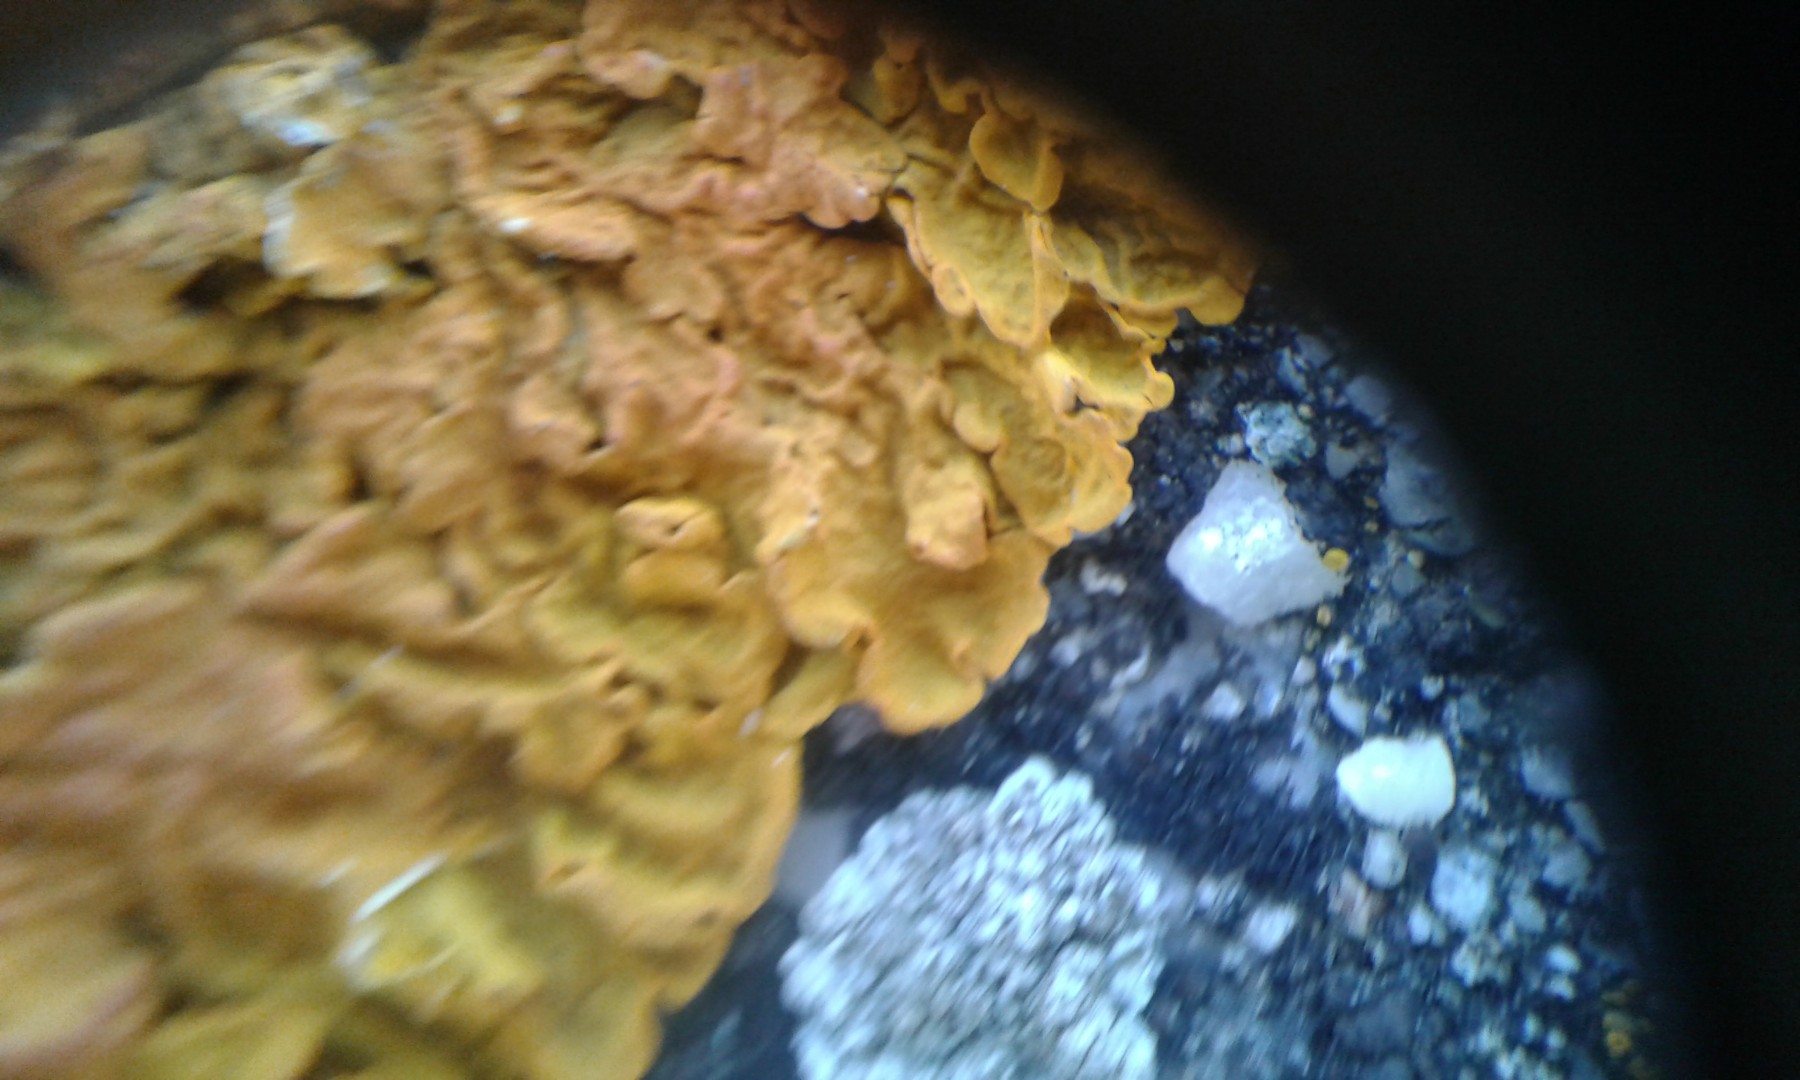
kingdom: Fungi
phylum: Ascomycota
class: Lecanoromycetes
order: Teloschistales
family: Teloschistaceae
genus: Xanthoria
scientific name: Xanthoria calcicola
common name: vortet væggelav
